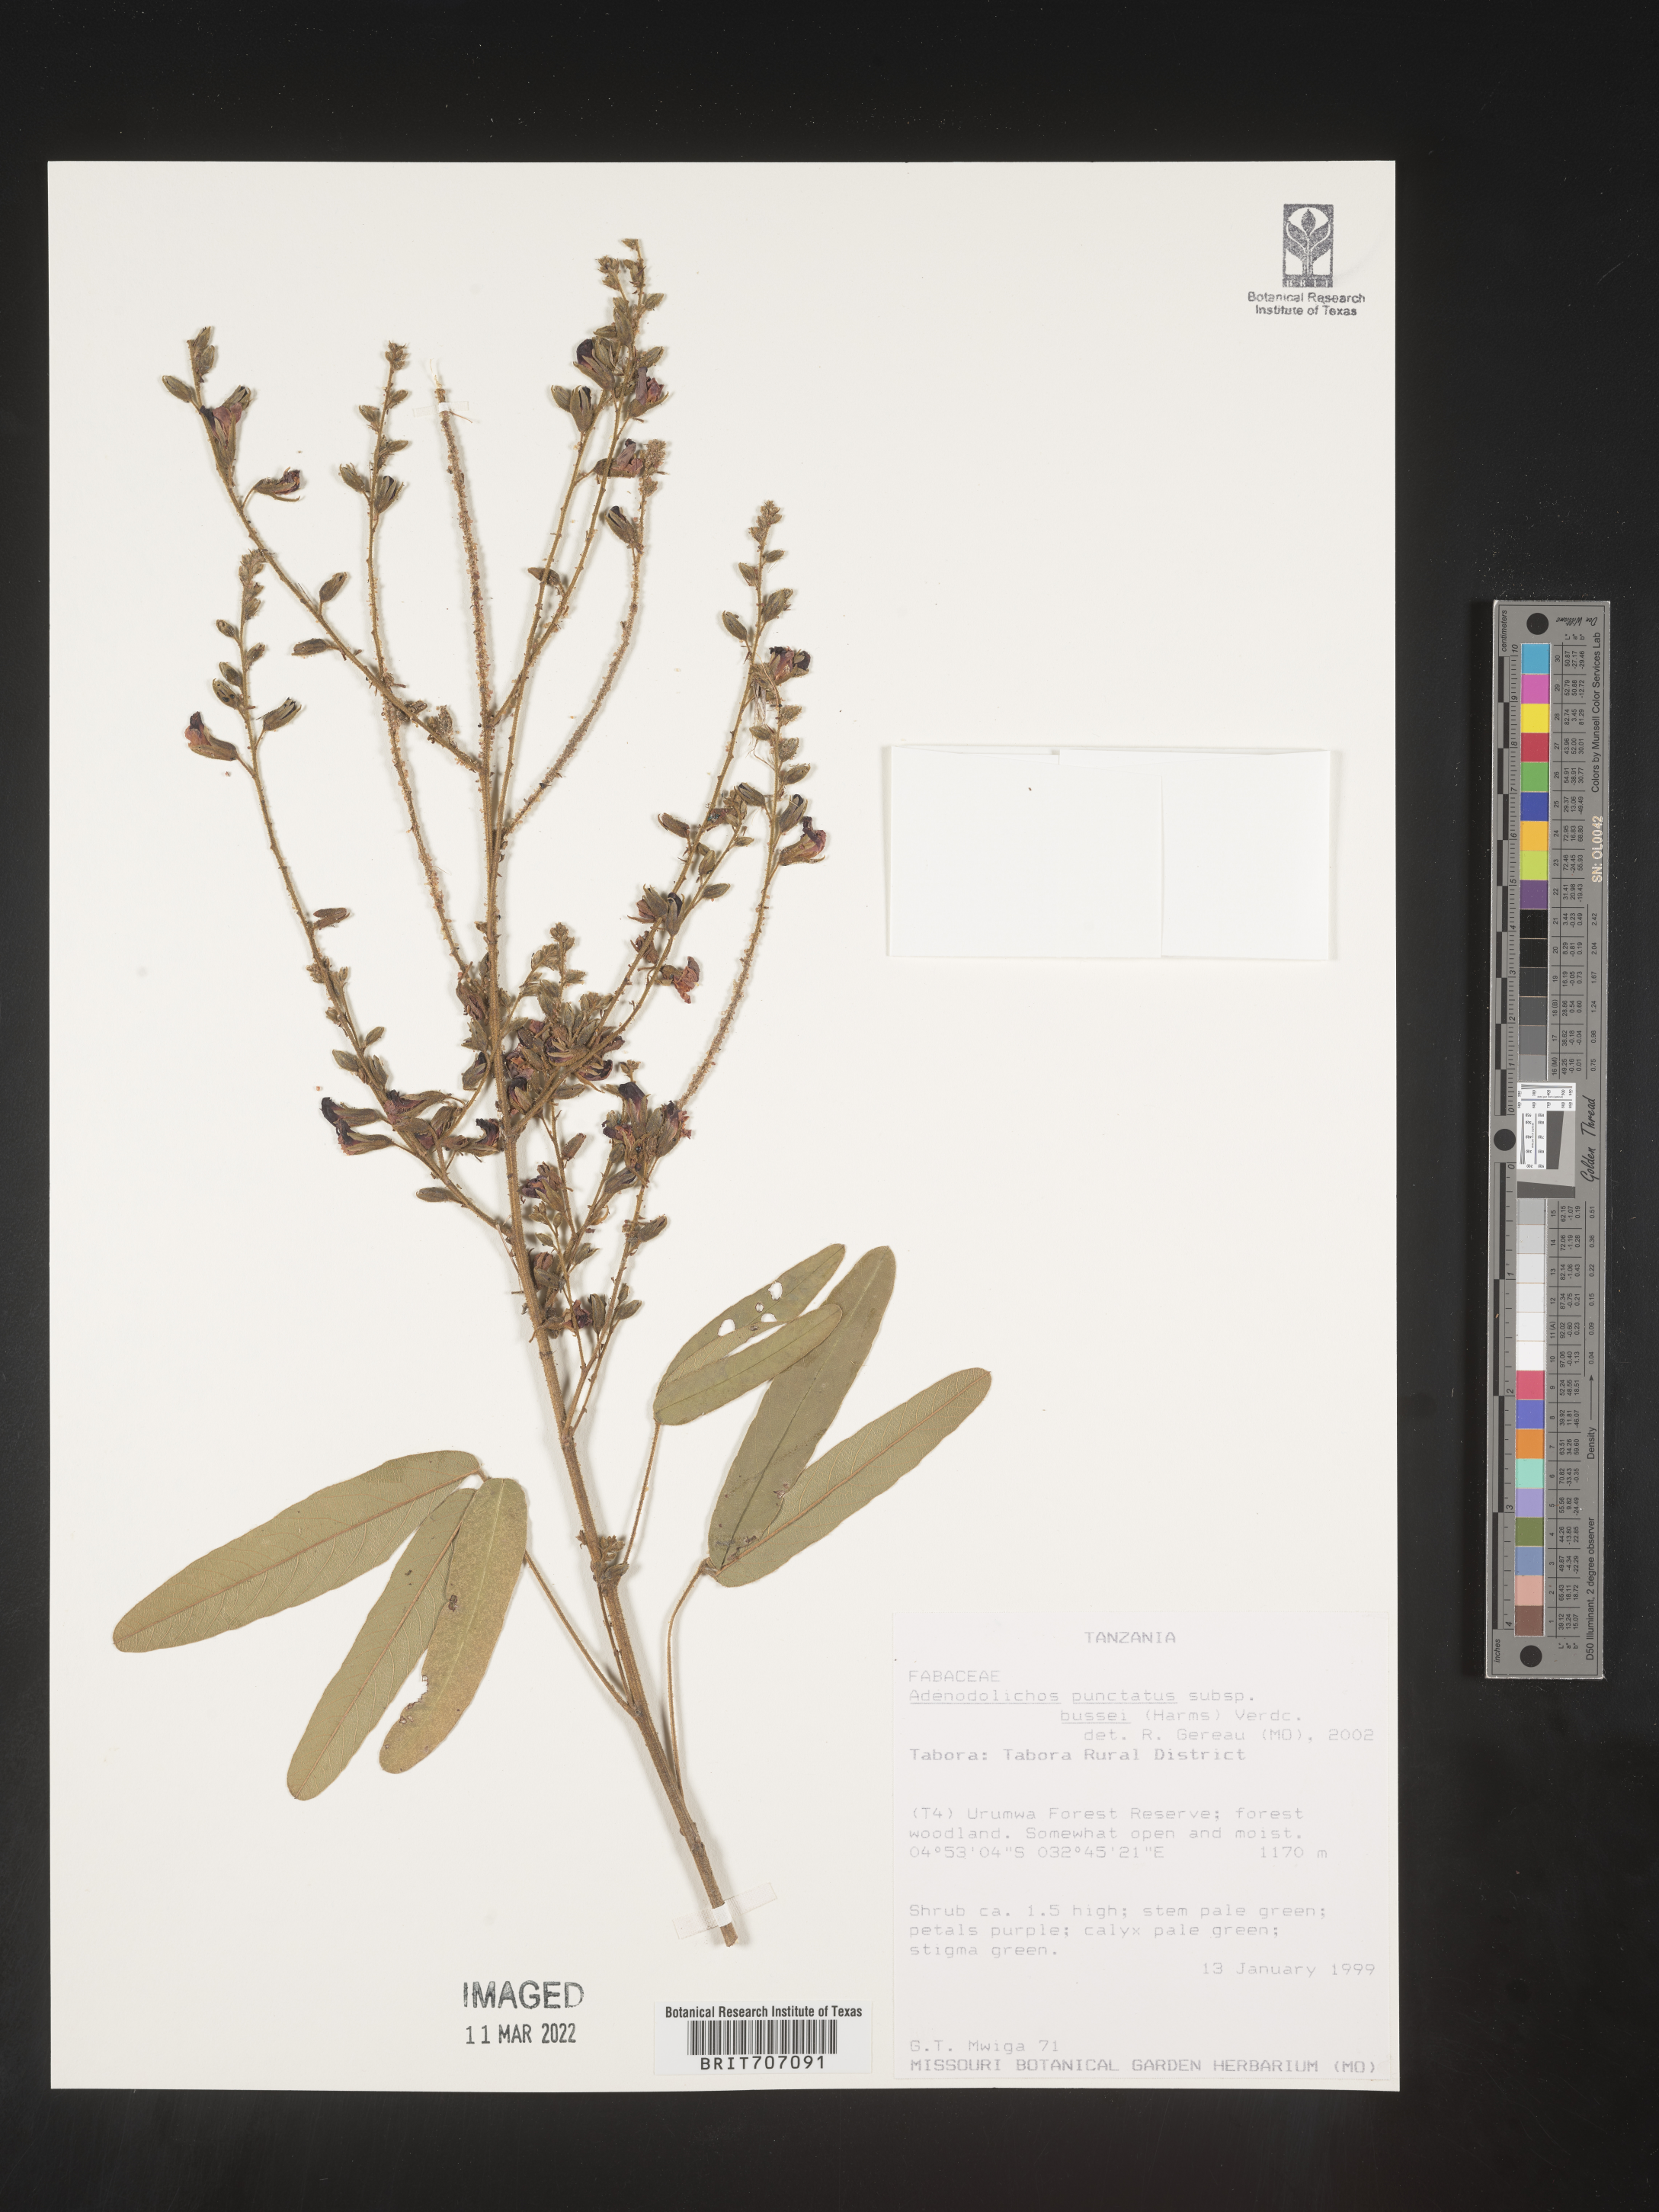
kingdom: Plantae
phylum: Tracheophyta
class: Magnoliopsida
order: Fabales
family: Fabaceae
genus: Adenodolichos
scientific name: Adenodolichos
